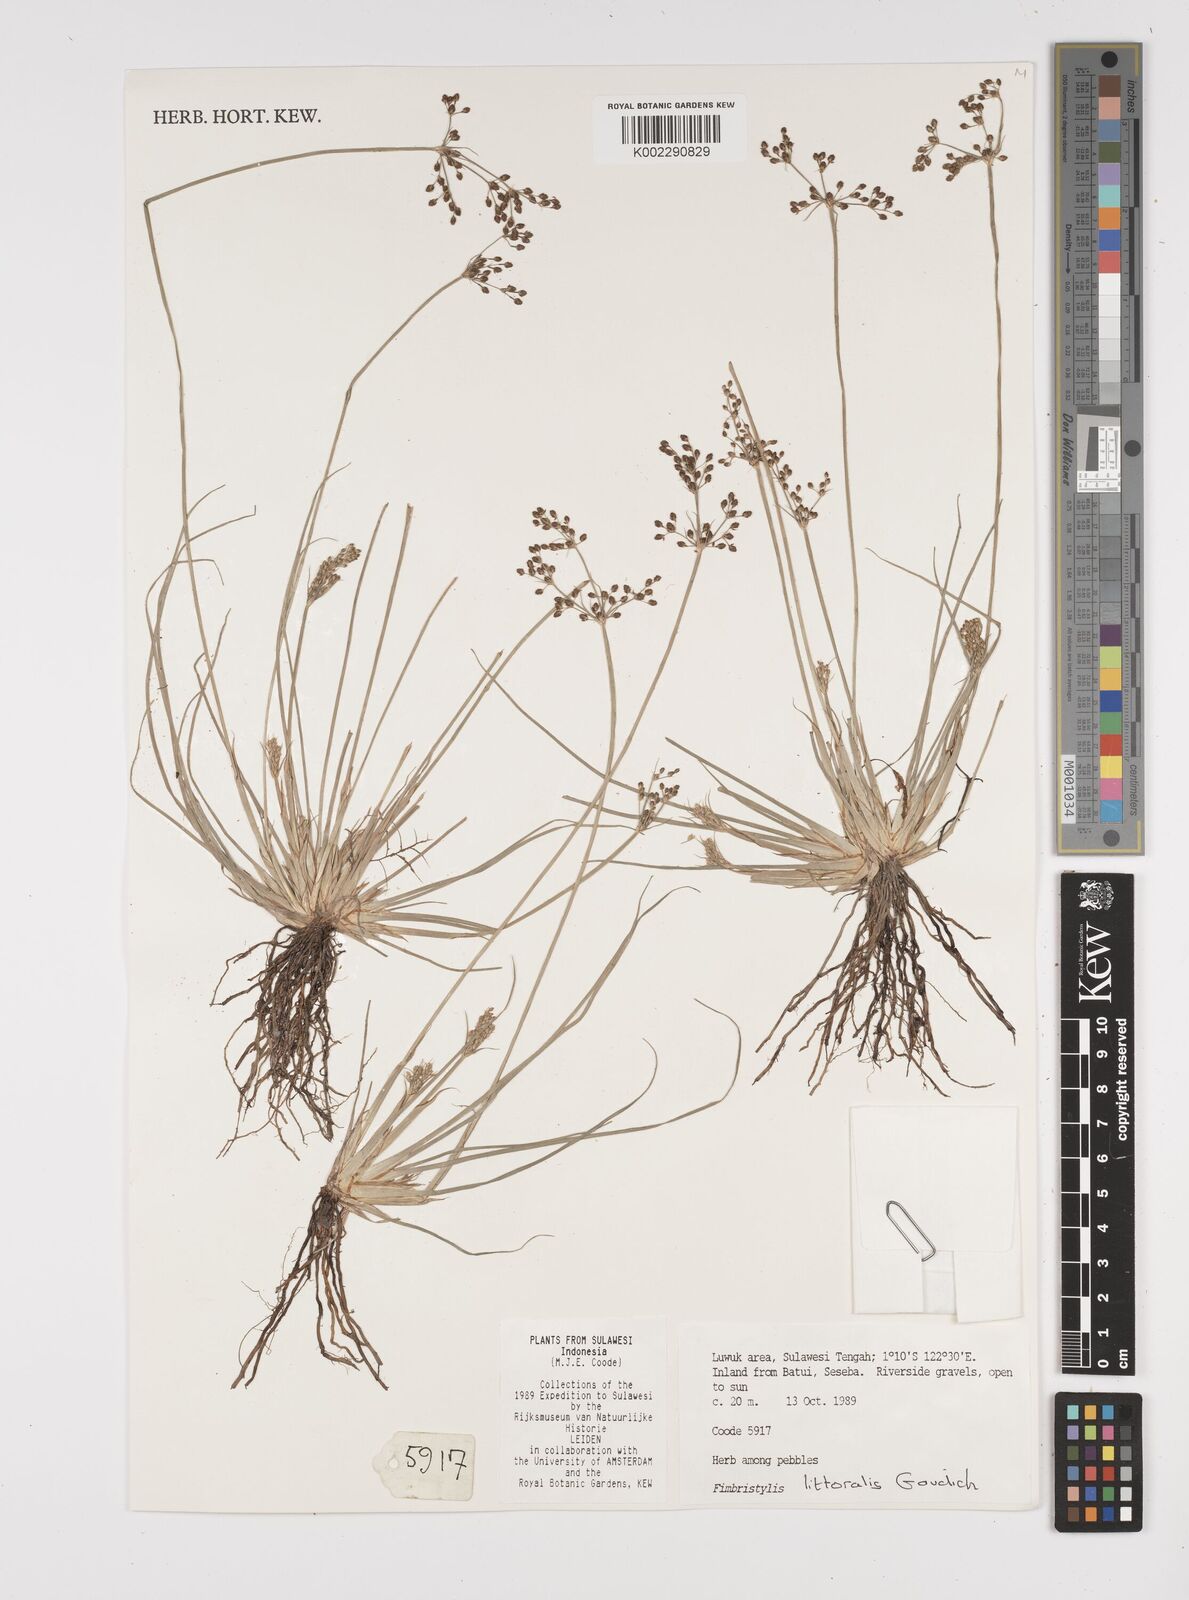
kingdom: Plantae
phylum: Tracheophyta
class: Liliopsida
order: Poales
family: Cyperaceae
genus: Fimbristylis
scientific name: Fimbristylis littoralis
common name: Fimbry
